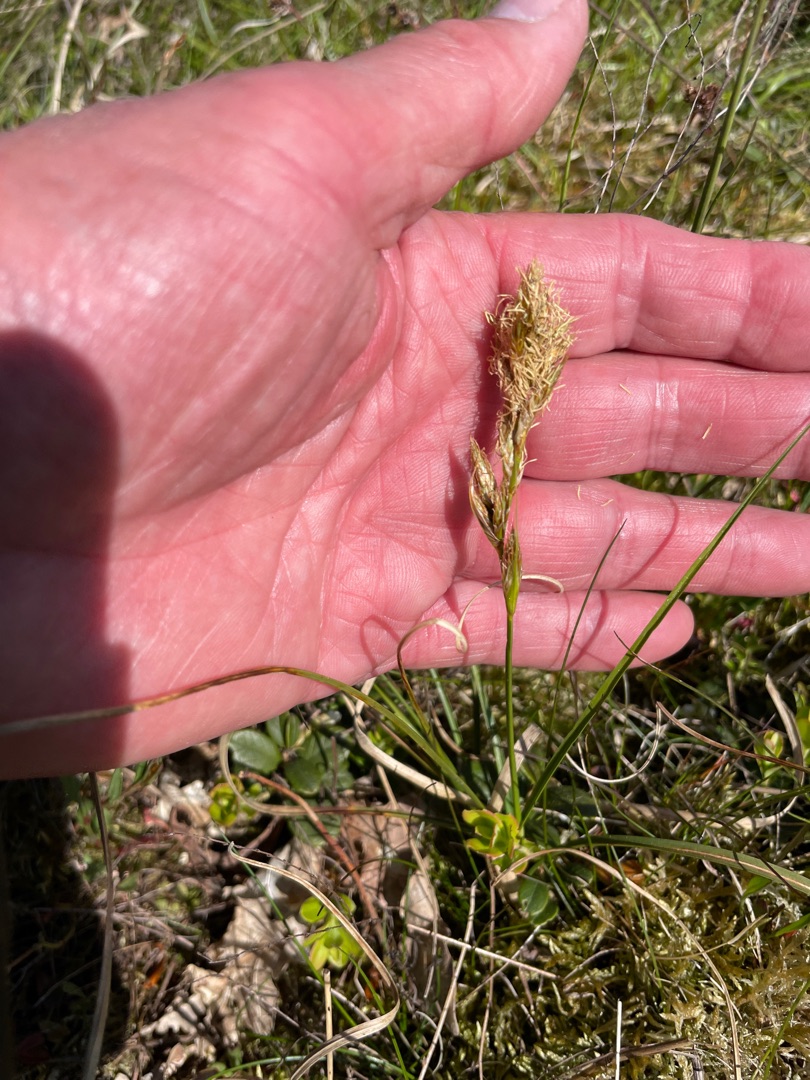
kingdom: Plantae
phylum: Tracheophyta
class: Liliopsida
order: Poales
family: Cyperaceae
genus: Carex
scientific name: Carex arenaria
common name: Sand-star
